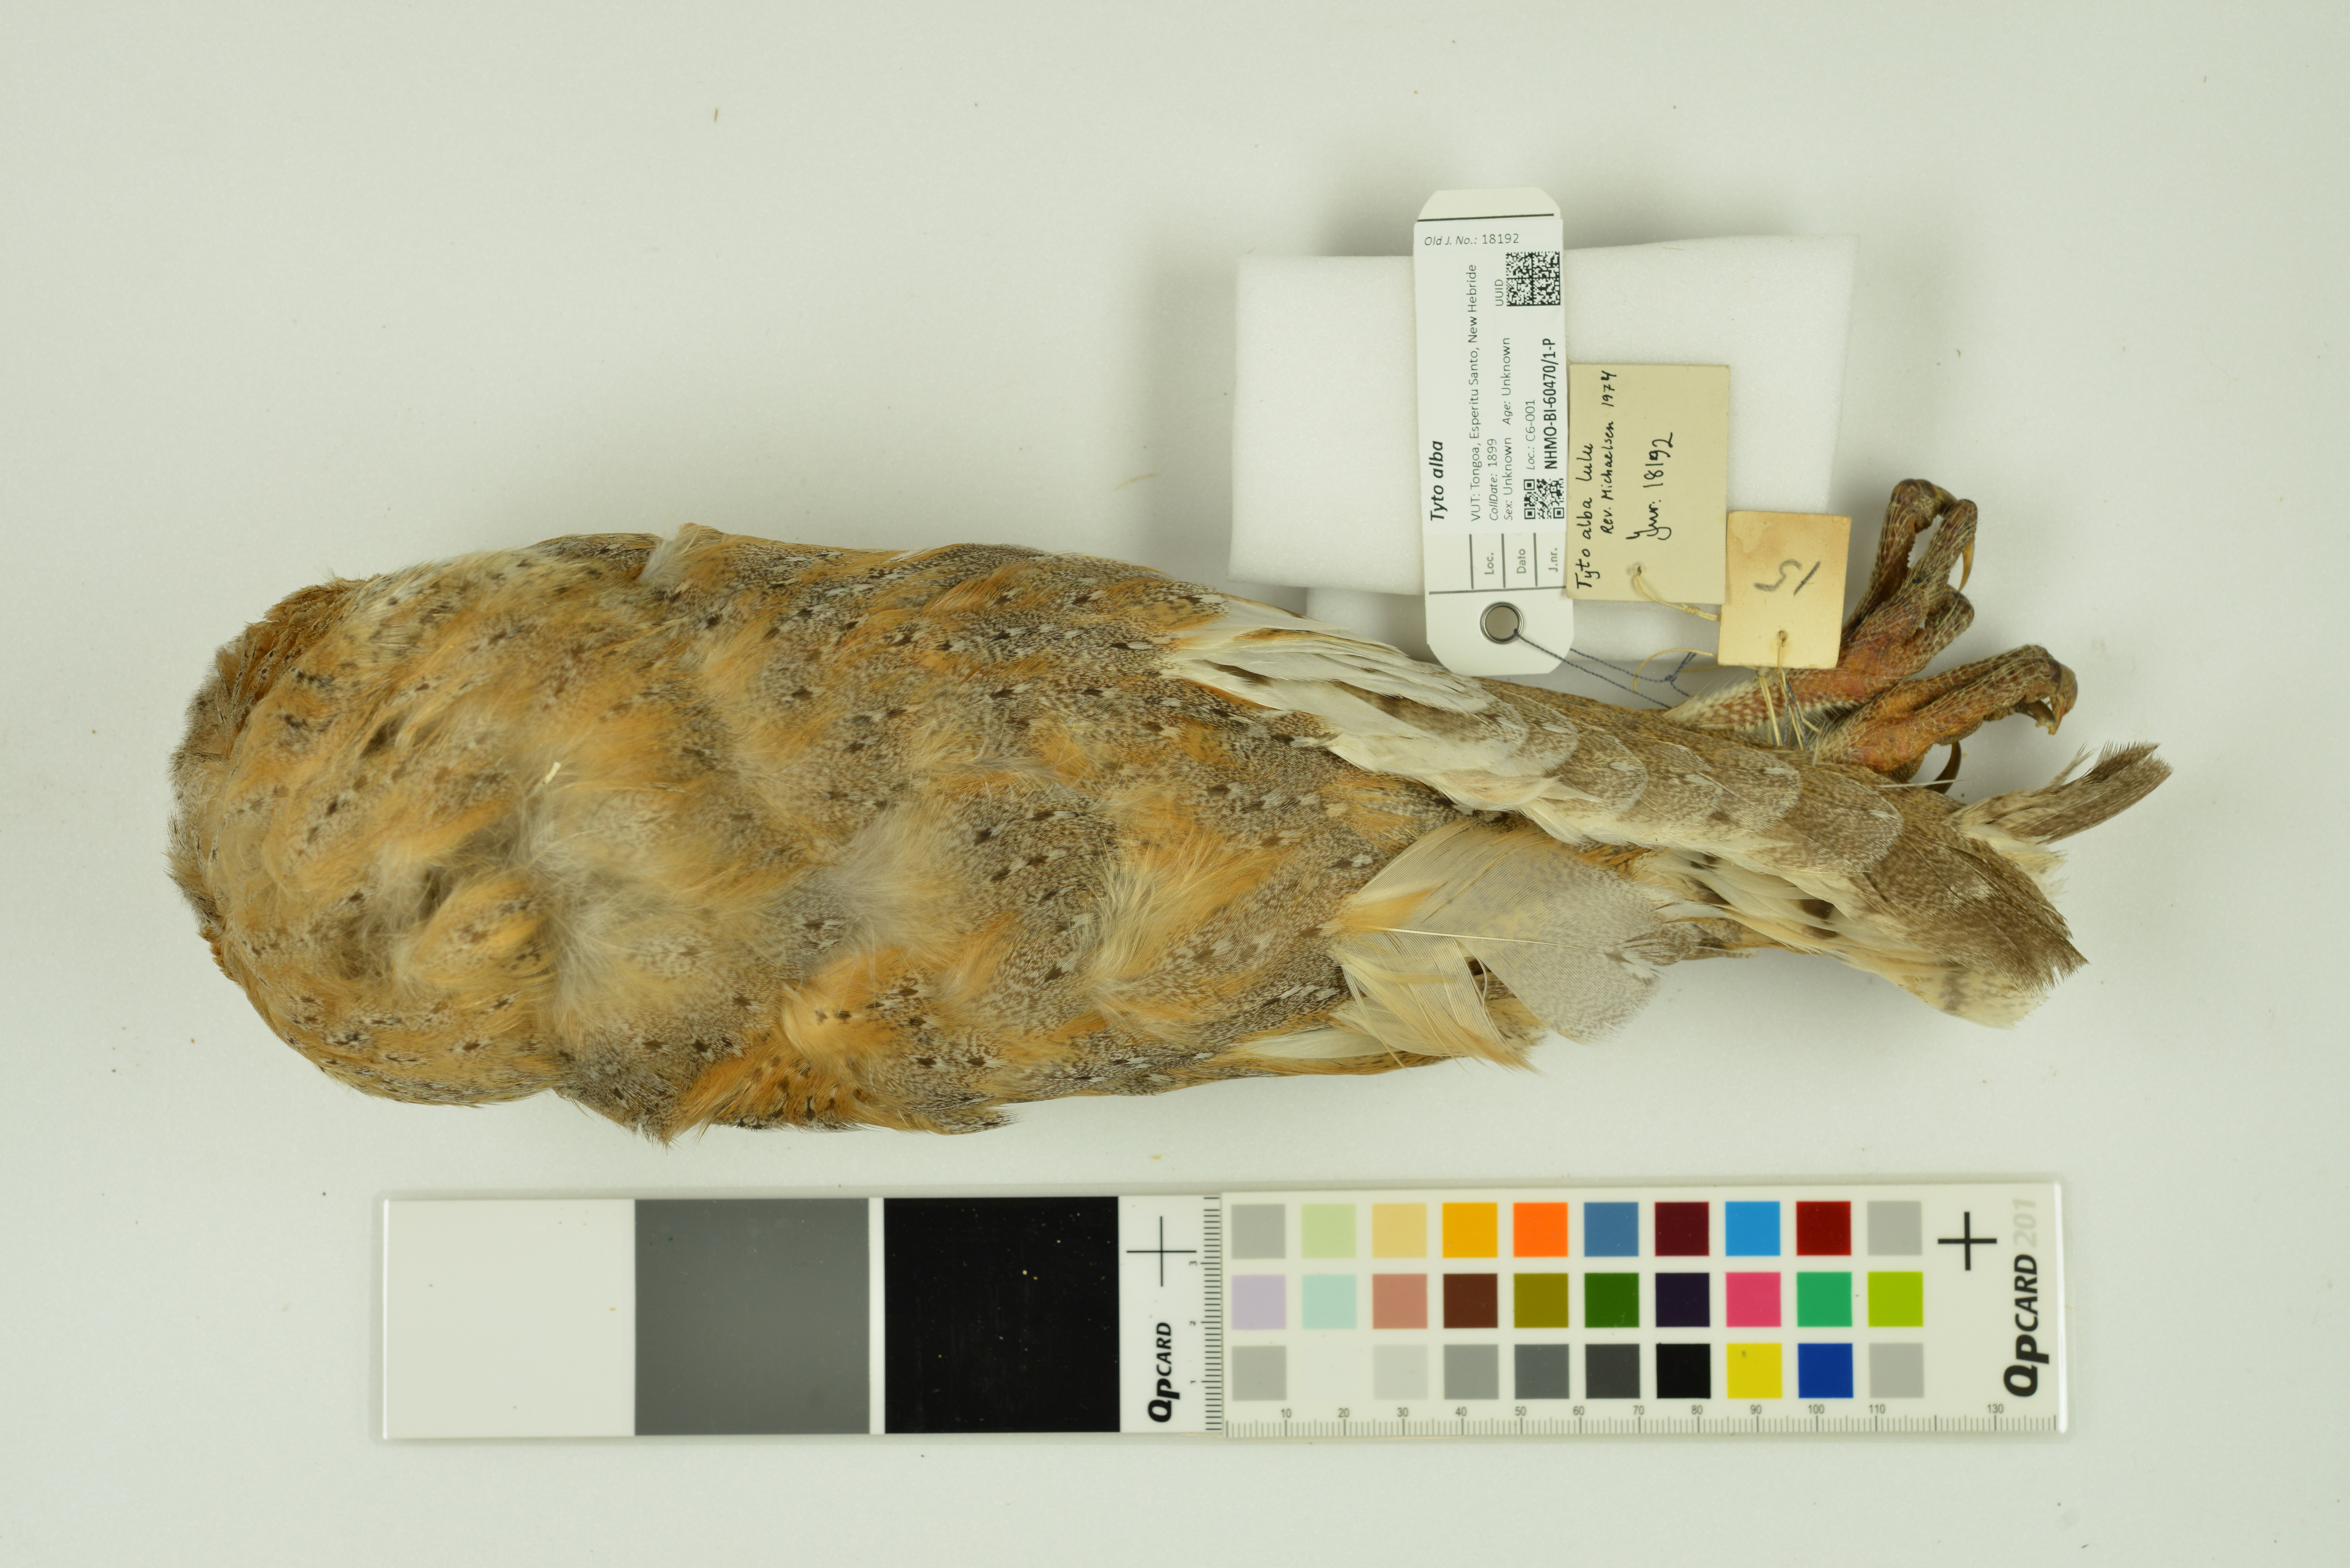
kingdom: Animalia
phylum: Chordata
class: Aves
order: Strigiformes
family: Tytonidae
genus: Tyto
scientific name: Tyto alba
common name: Barn owl
